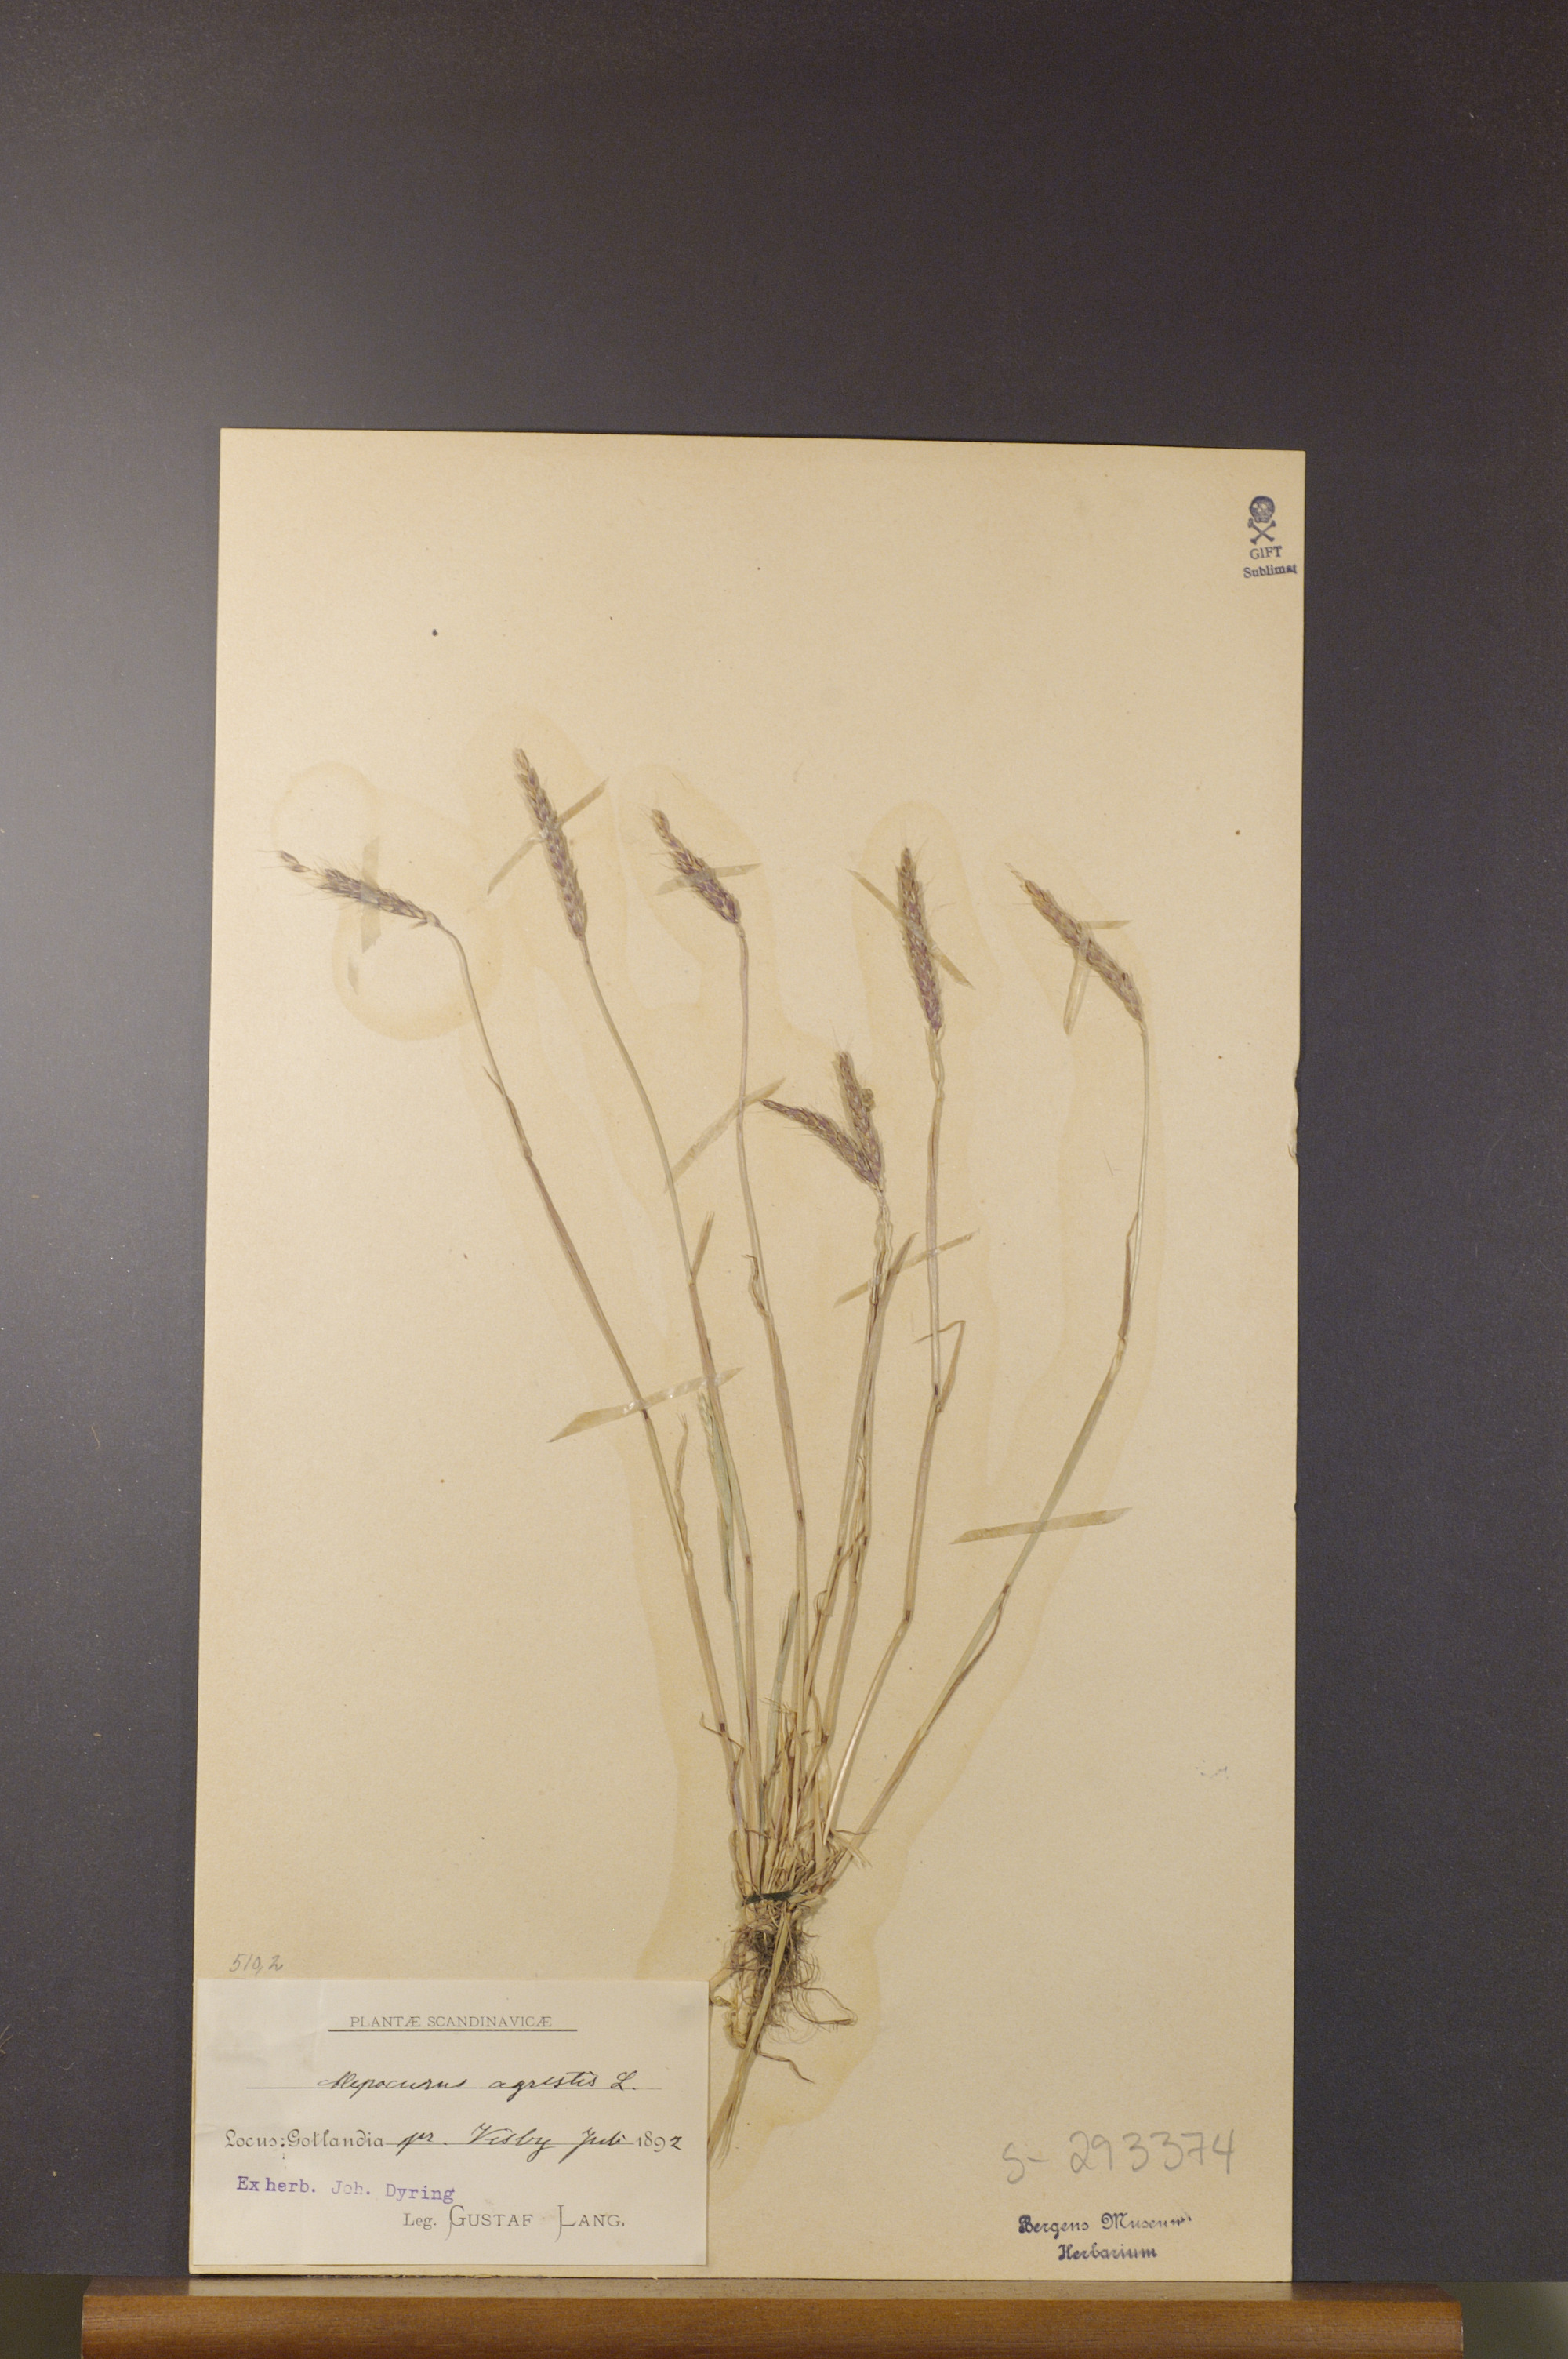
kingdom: Plantae
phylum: Tracheophyta
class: Liliopsida
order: Poales
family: Poaceae
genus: Alopecurus
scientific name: Alopecurus myosuroides
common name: Black-grass
